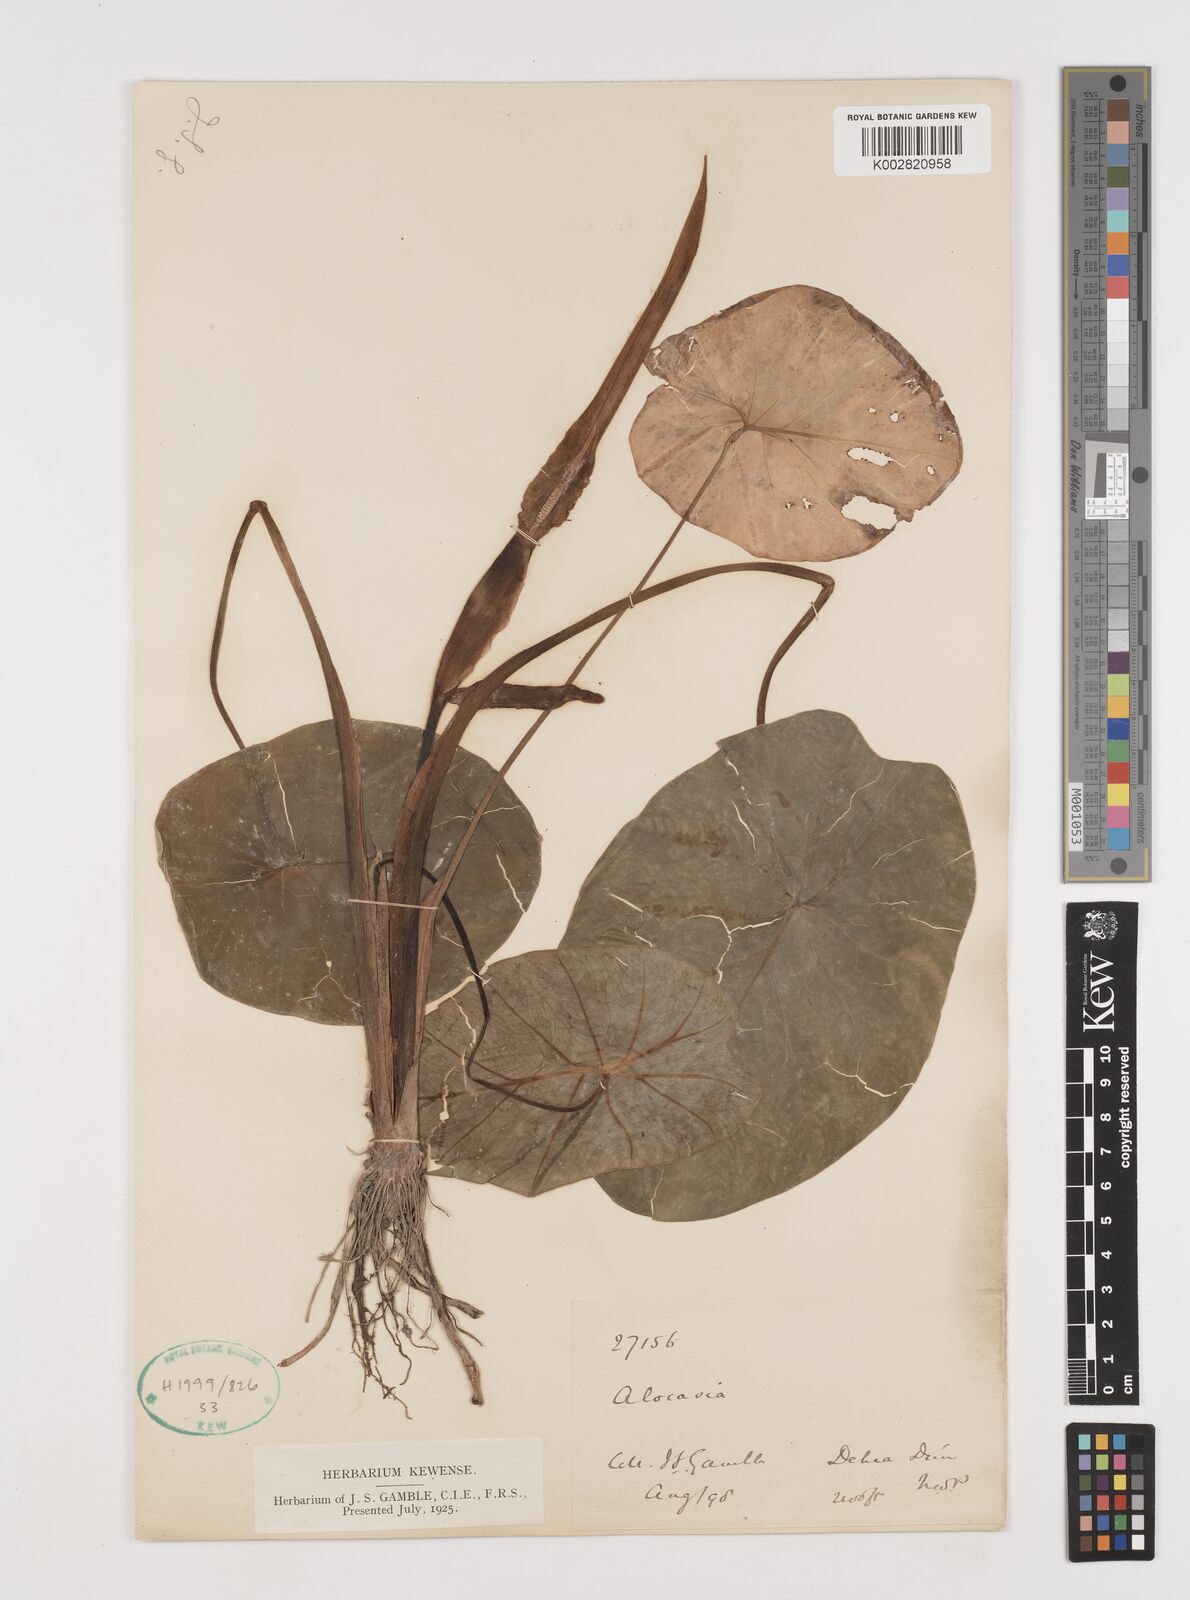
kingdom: Plantae
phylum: Tracheophyta
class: Liliopsida
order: Alismatales
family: Araceae
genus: Alocasia
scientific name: Alocasia
